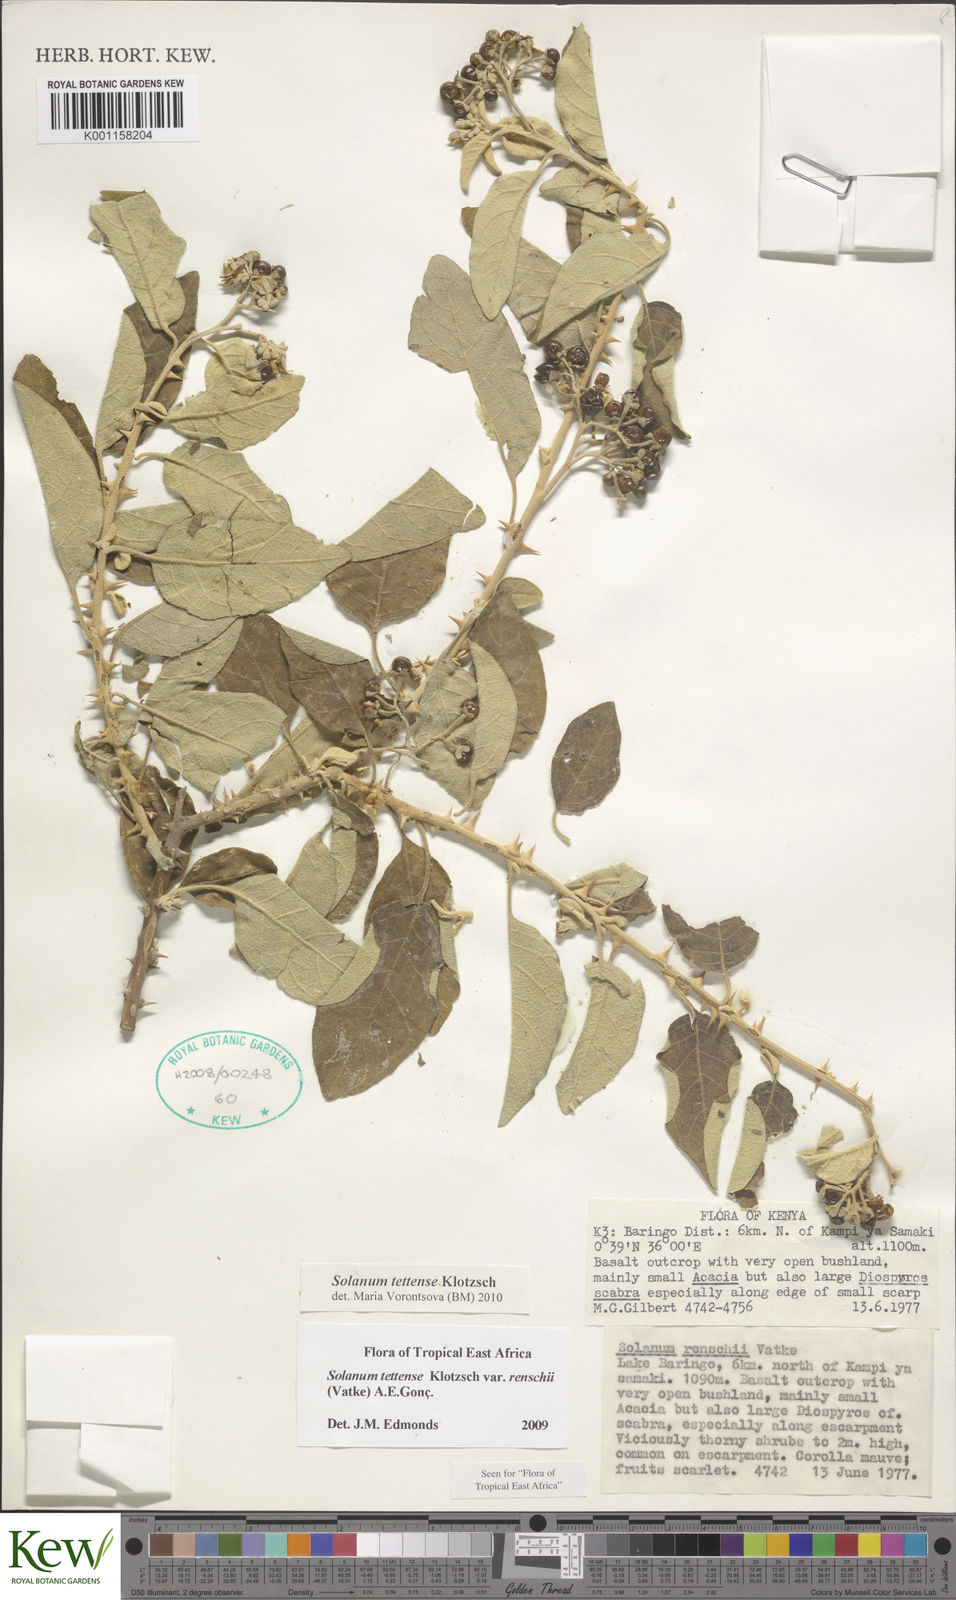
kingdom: Plantae
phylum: Tracheophyta
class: Magnoliopsida
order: Solanales
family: Solanaceae
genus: Solanum
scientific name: Solanum tettense
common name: Mozambique bitter apple
